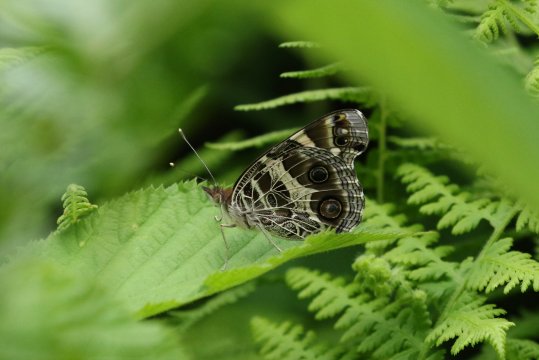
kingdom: Animalia
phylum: Arthropoda
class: Insecta
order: Lepidoptera
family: Nymphalidae
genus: Vanessa
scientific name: Vanessa virginiensis
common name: American Lady
